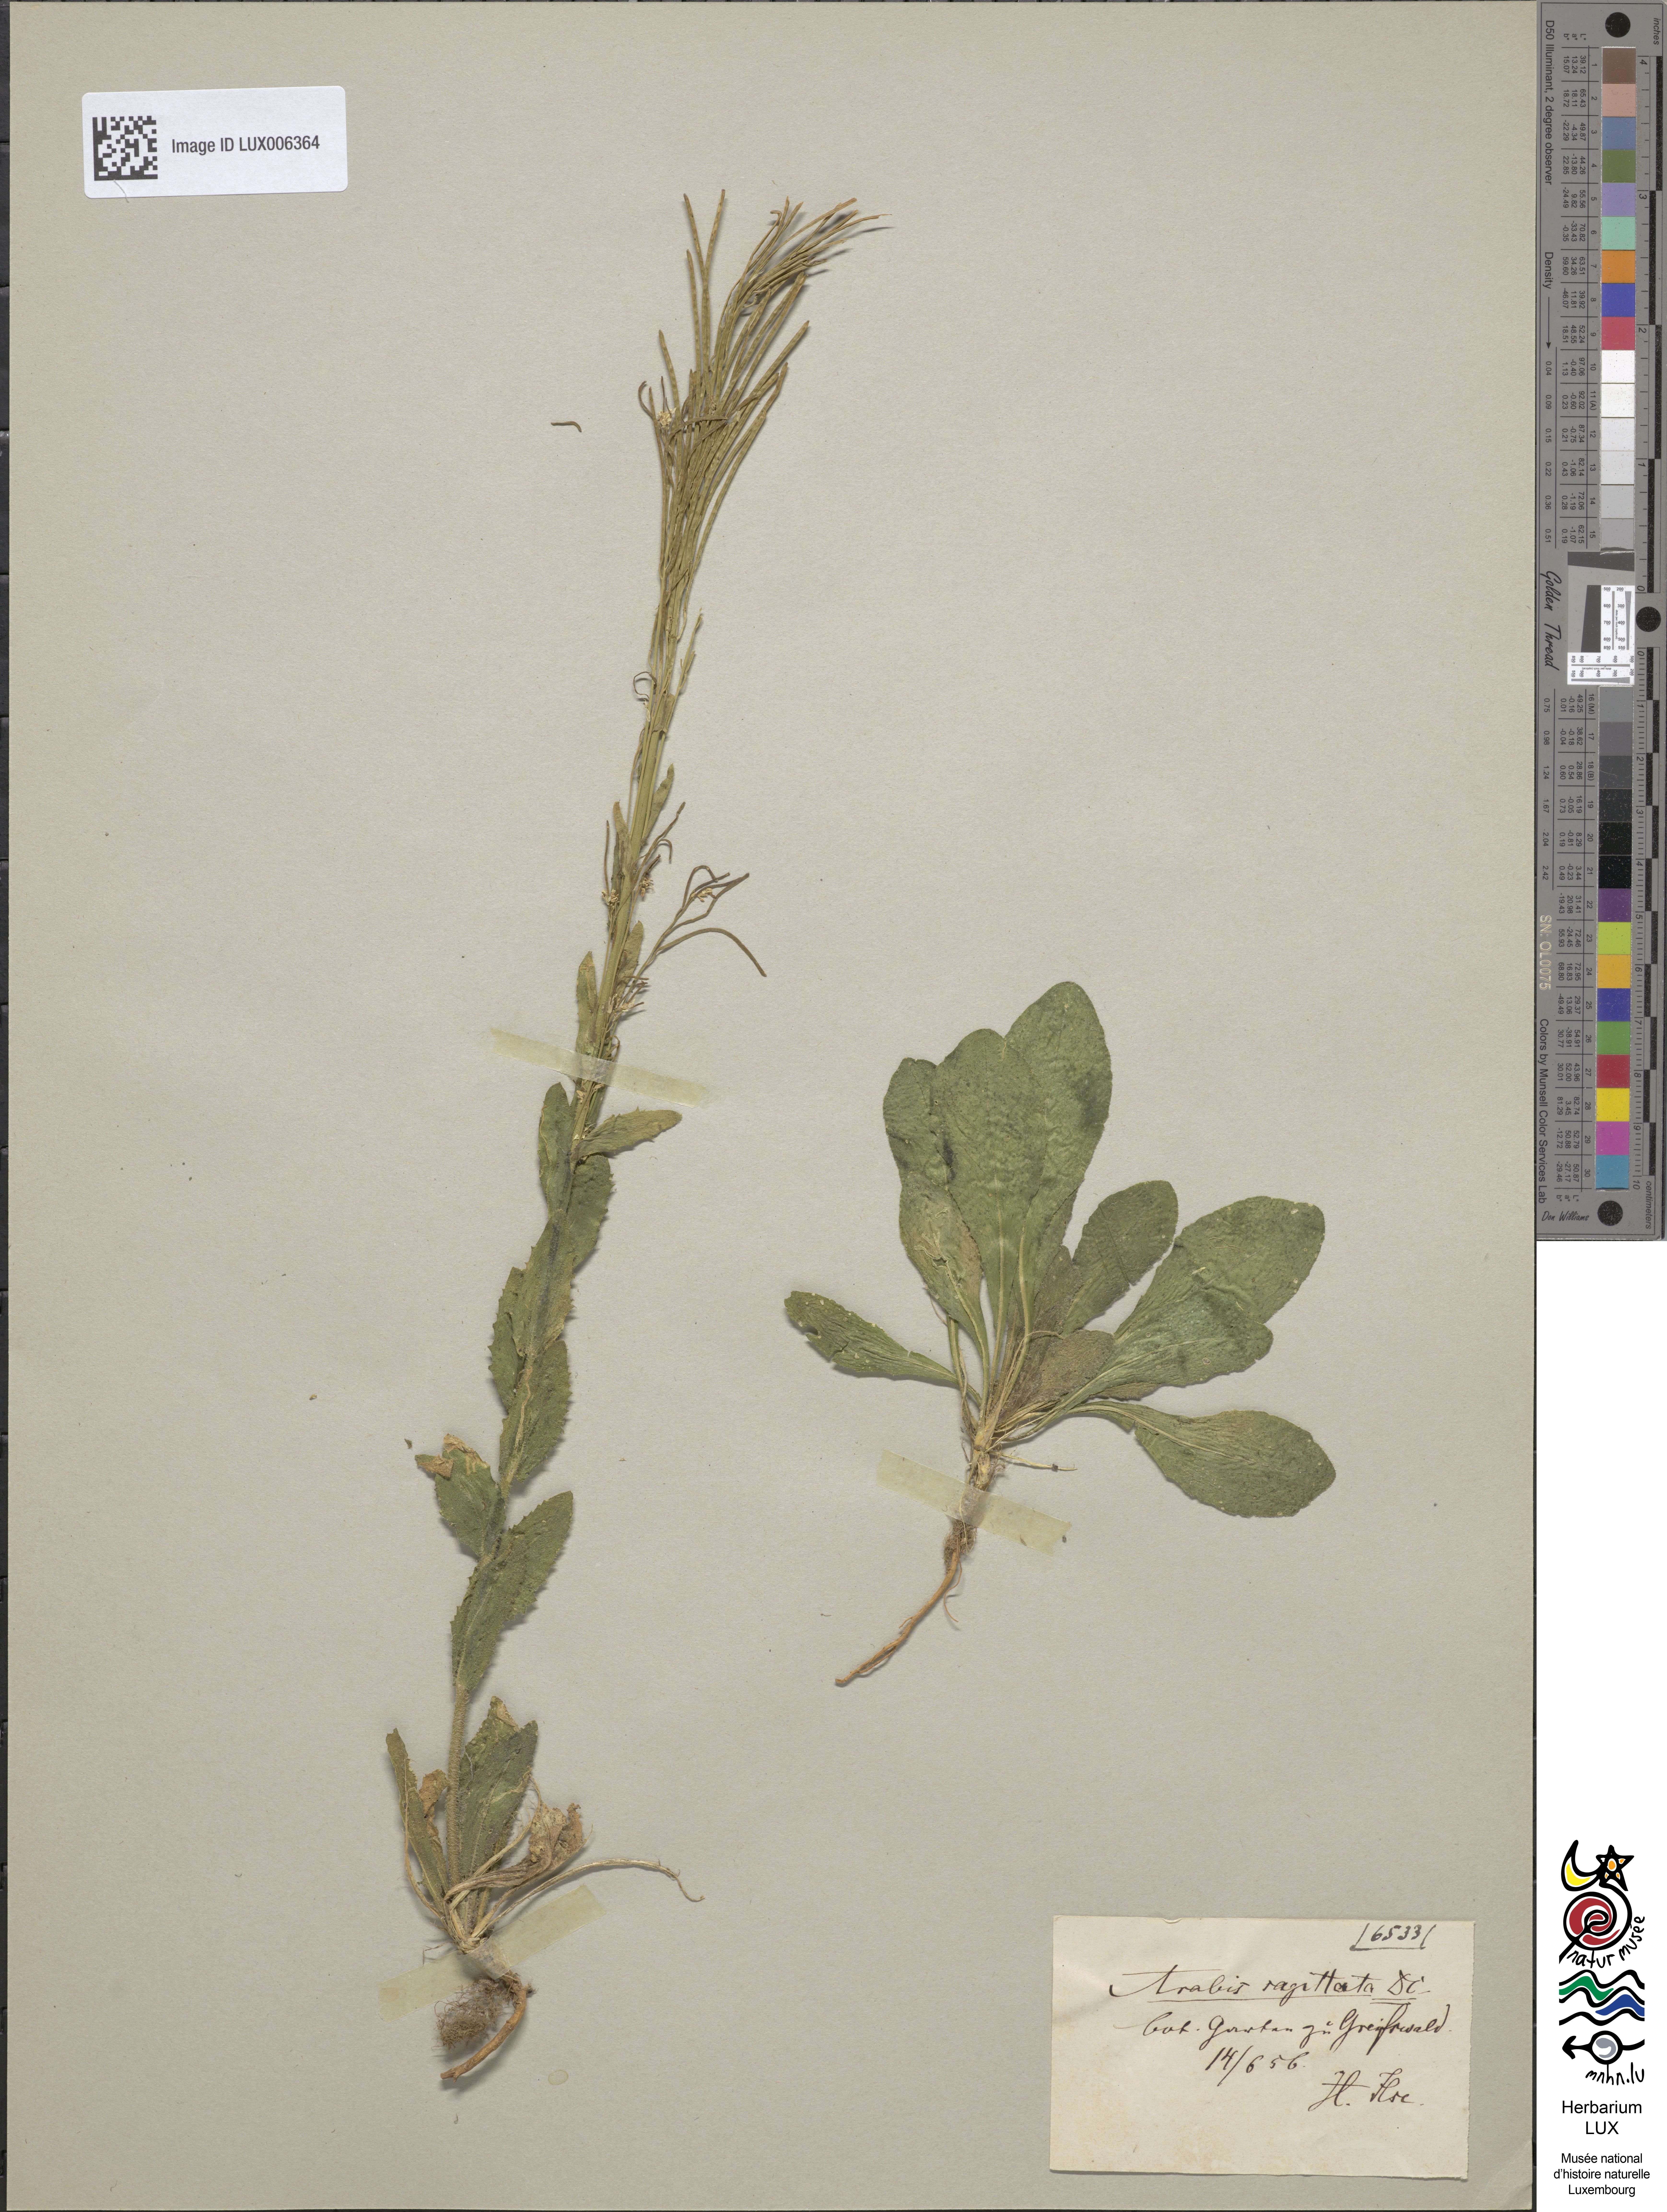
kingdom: Plantae
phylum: Tracheophyta
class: Magnoliopsida
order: Brassicales
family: Brassicaceae
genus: Arabis
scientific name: Arabis sagittata
